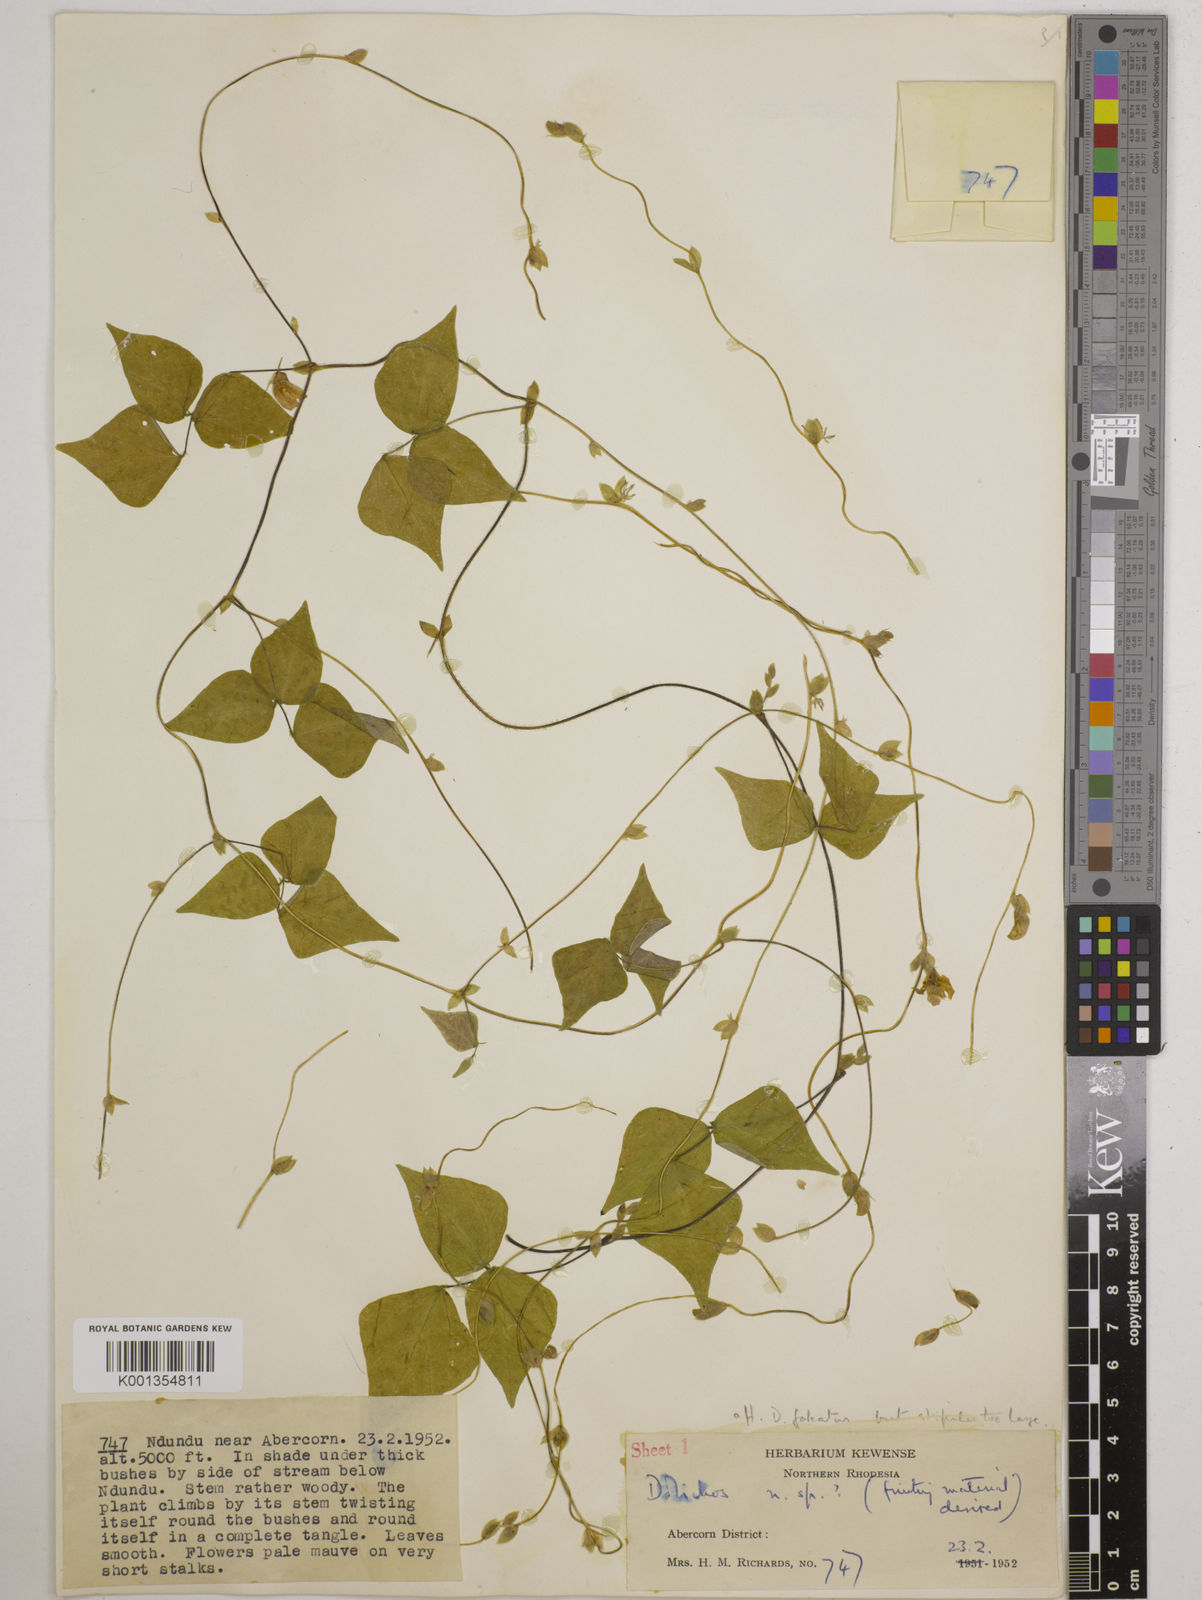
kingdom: Plantae
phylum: Tracheophyta
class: Magnoliopsida
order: Fabales
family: Fabaceae
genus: Dolichos
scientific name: Dolichos
